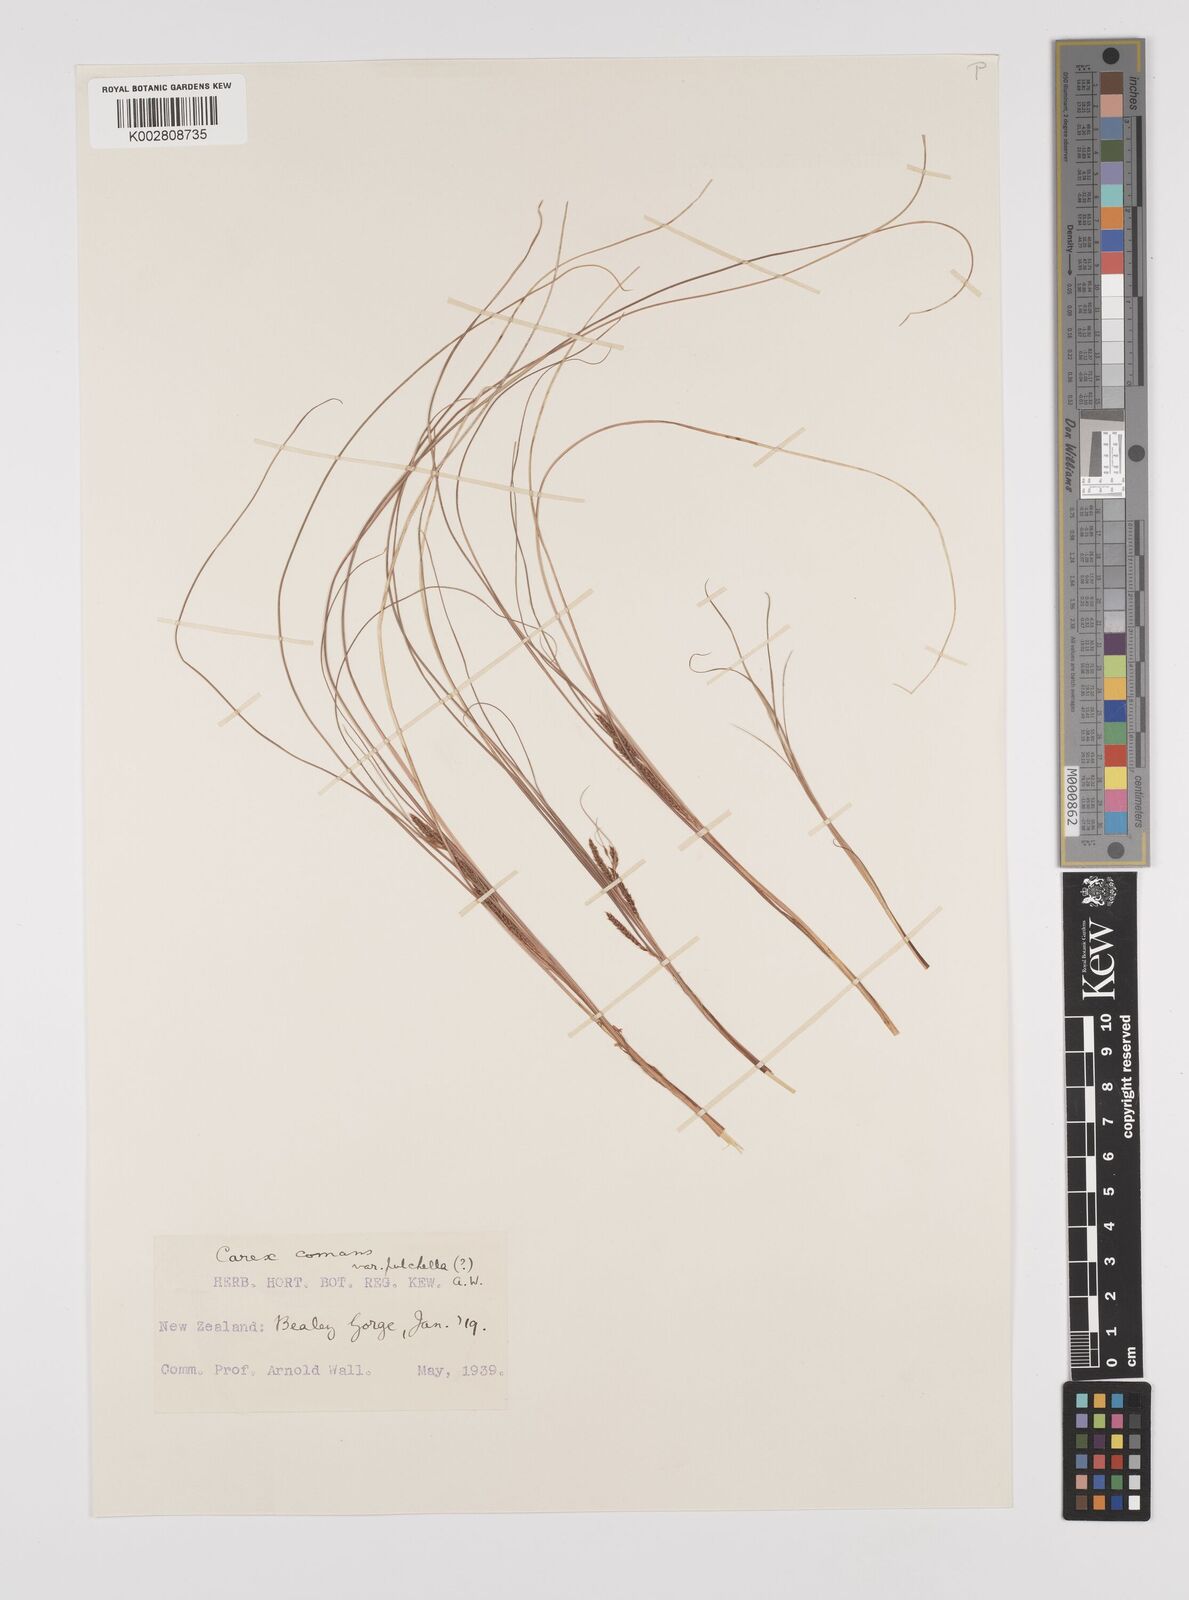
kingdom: Plantae
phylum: Tracheophyta
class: Liliopsida
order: Poales
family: Cyperaceae
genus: Carex
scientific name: Carex comans
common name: Longwood tussock
